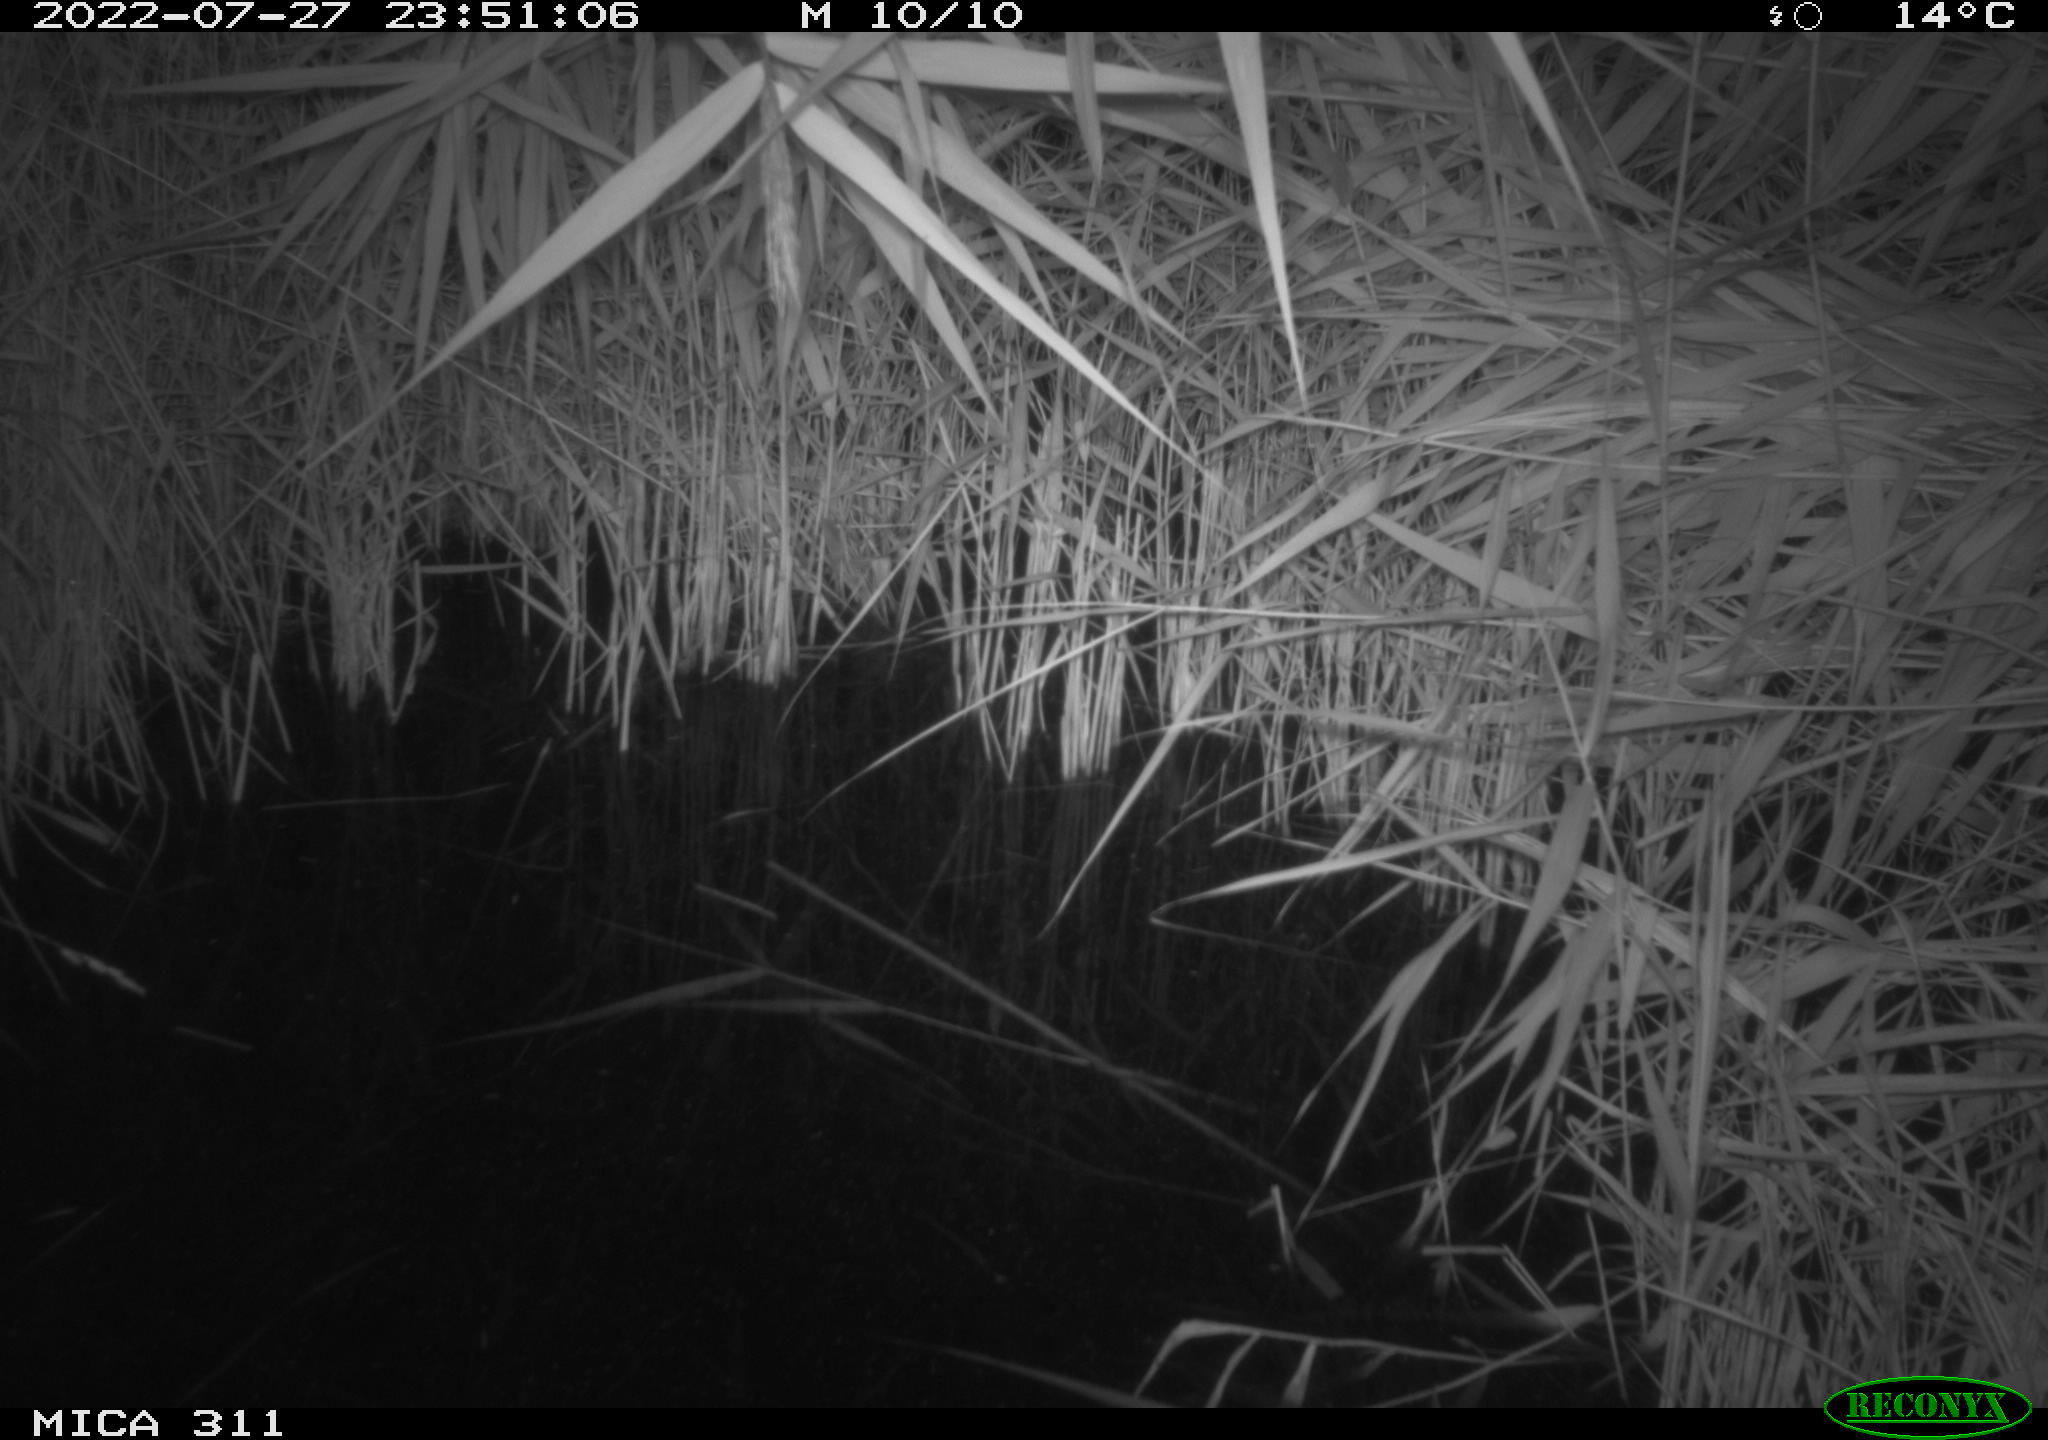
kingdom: Animalia
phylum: Chordata
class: Mammalia
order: Rodentia
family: Muridae
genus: Rattus
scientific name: Rattus norvegicus
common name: Brown rat
